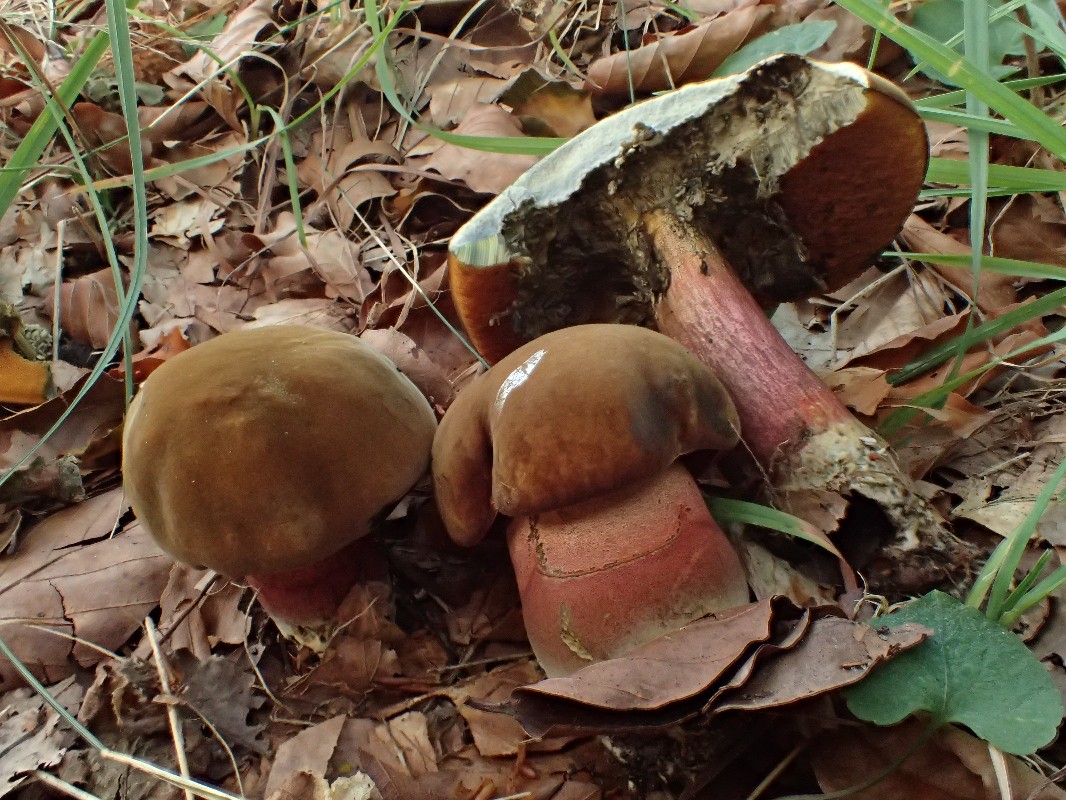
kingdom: Fungi
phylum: Basidiomycota
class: Agaricomycetes
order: Boletales
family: Boletaceae
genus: Neoboletus
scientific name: Neoboletus erythropus
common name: punktstokket indigorørhat
